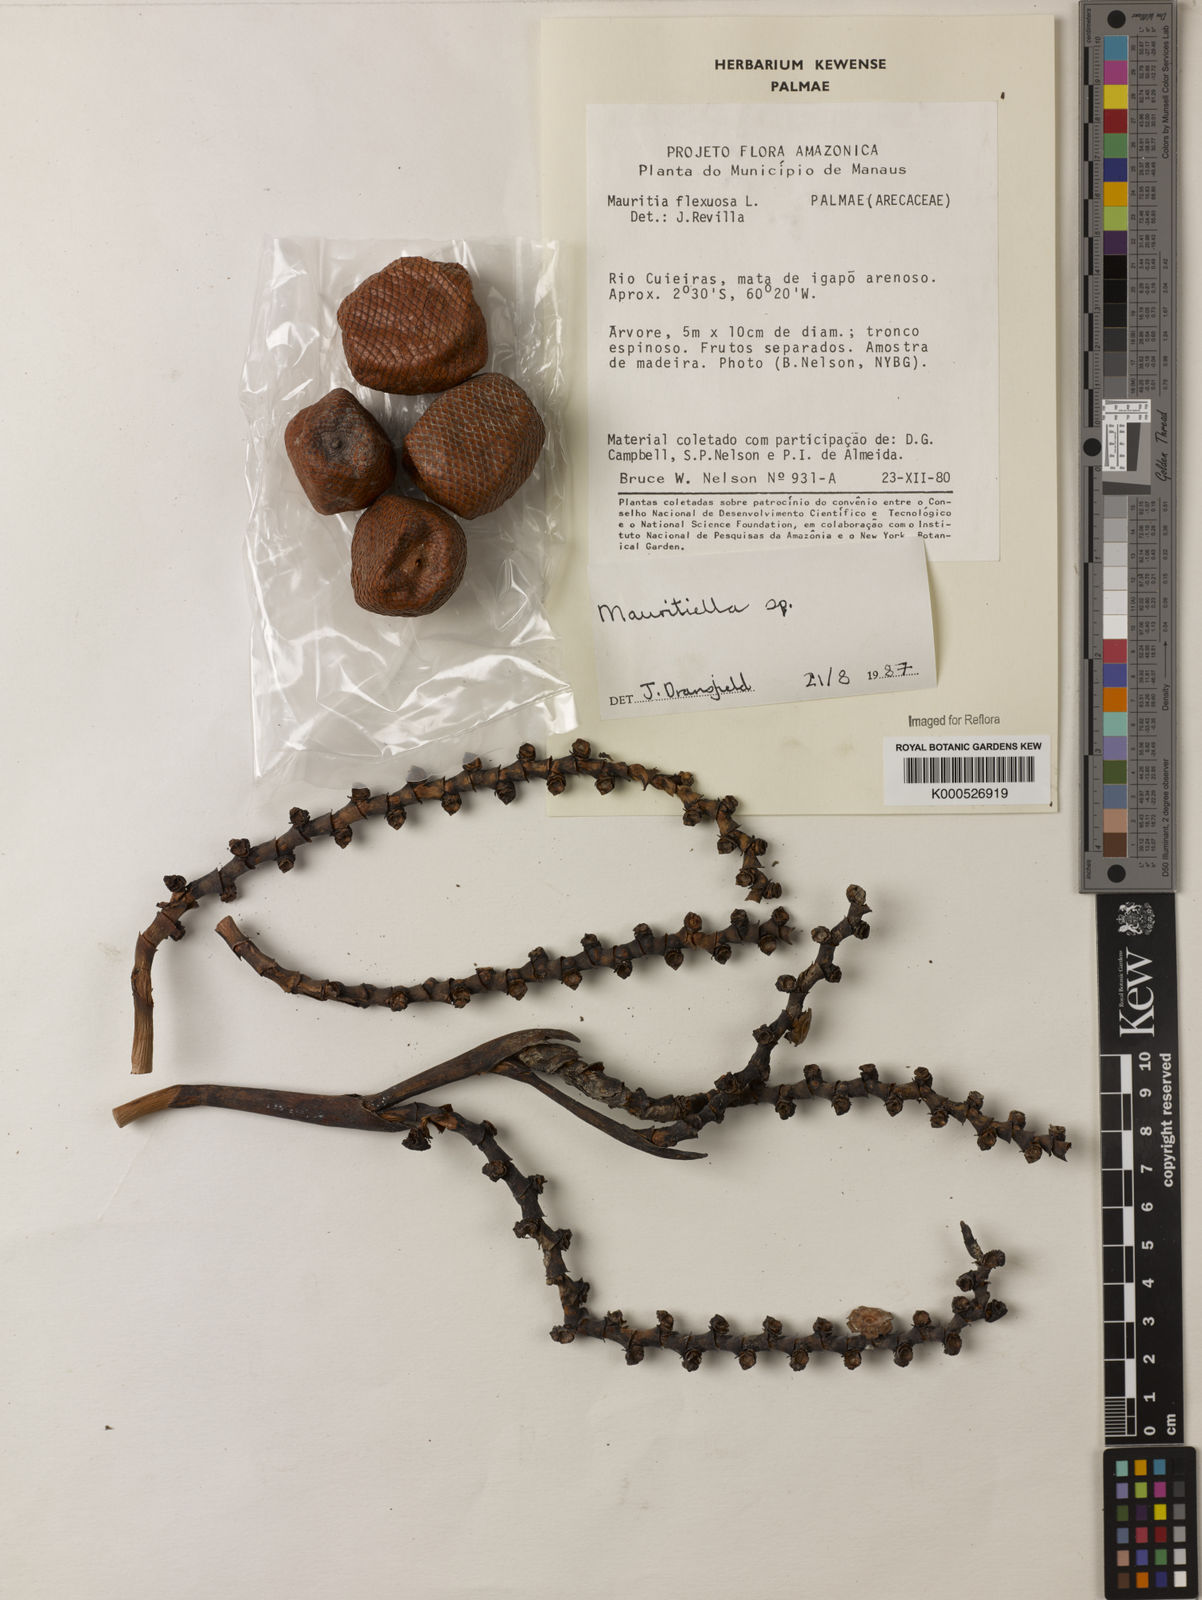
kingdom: Plantae
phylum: Tracheophyta
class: Liliopsida
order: Arecales
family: Arecaceae
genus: Mauritiella
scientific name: Mauritiella
